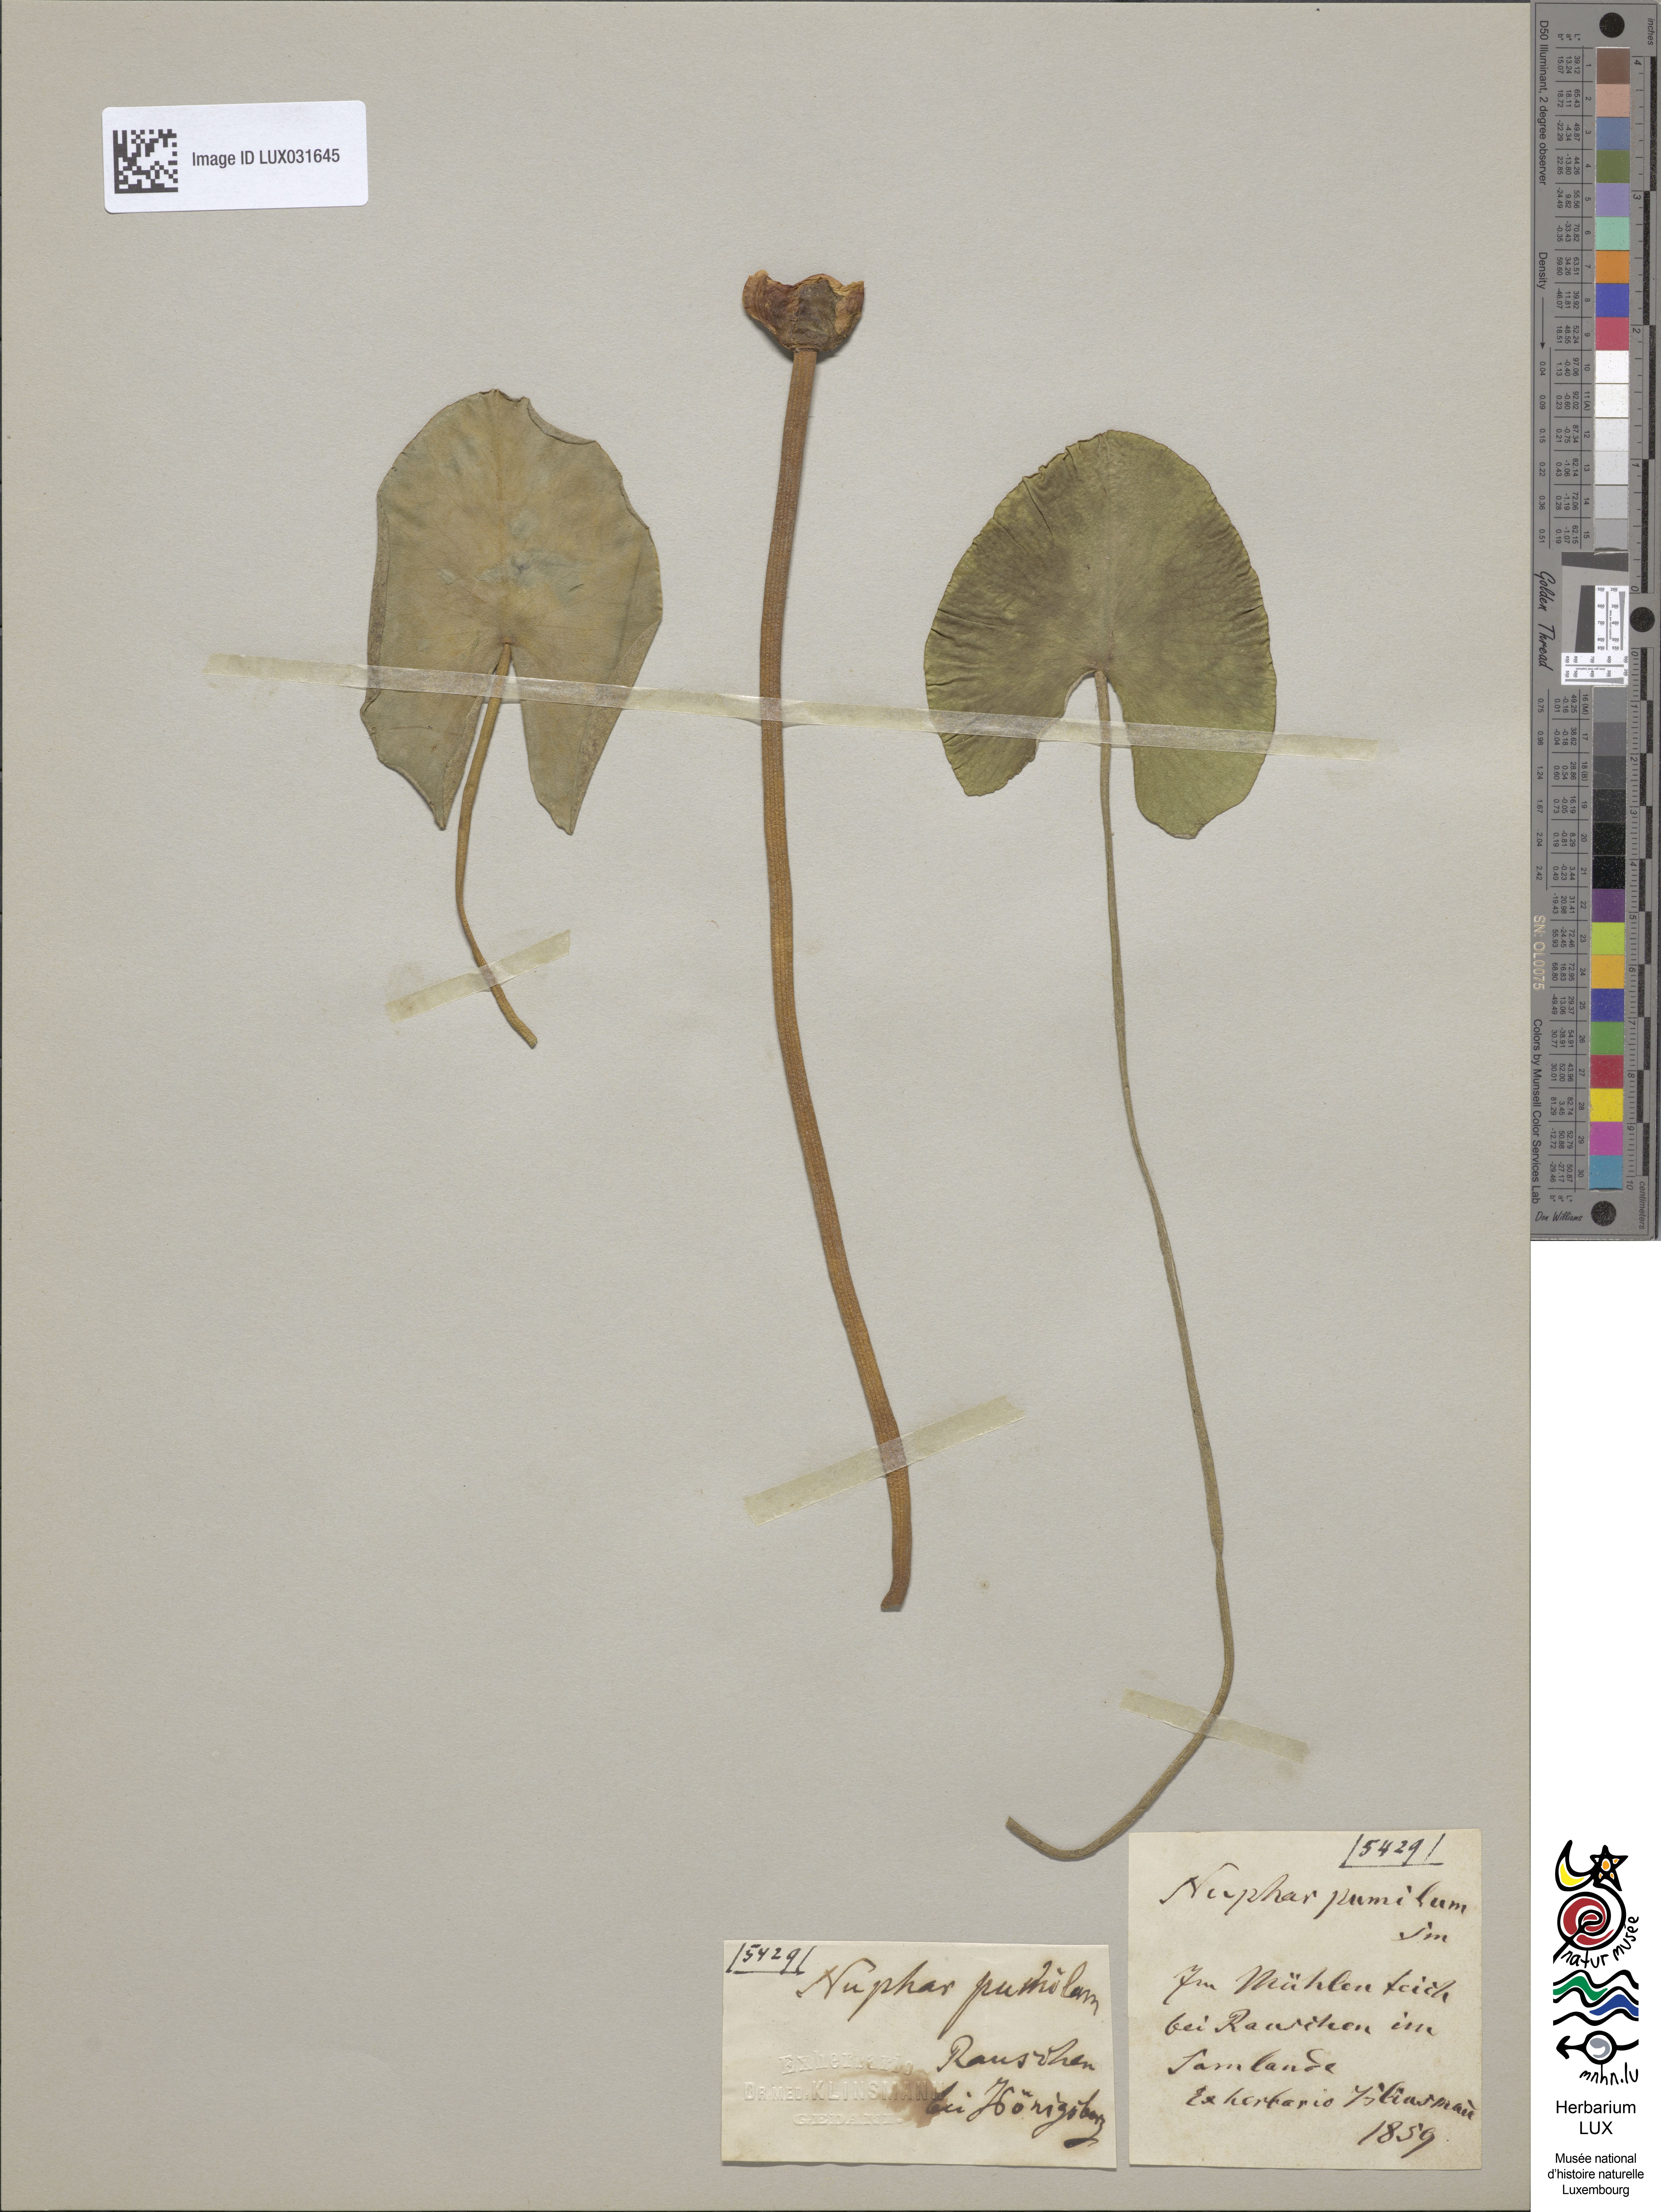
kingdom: Plantae
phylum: Tracheophyta
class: Magnoliopsida
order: Nymphaeales
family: Nymphaeaceae
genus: Nuphar
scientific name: Nuphar pumila
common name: Least water-lily
